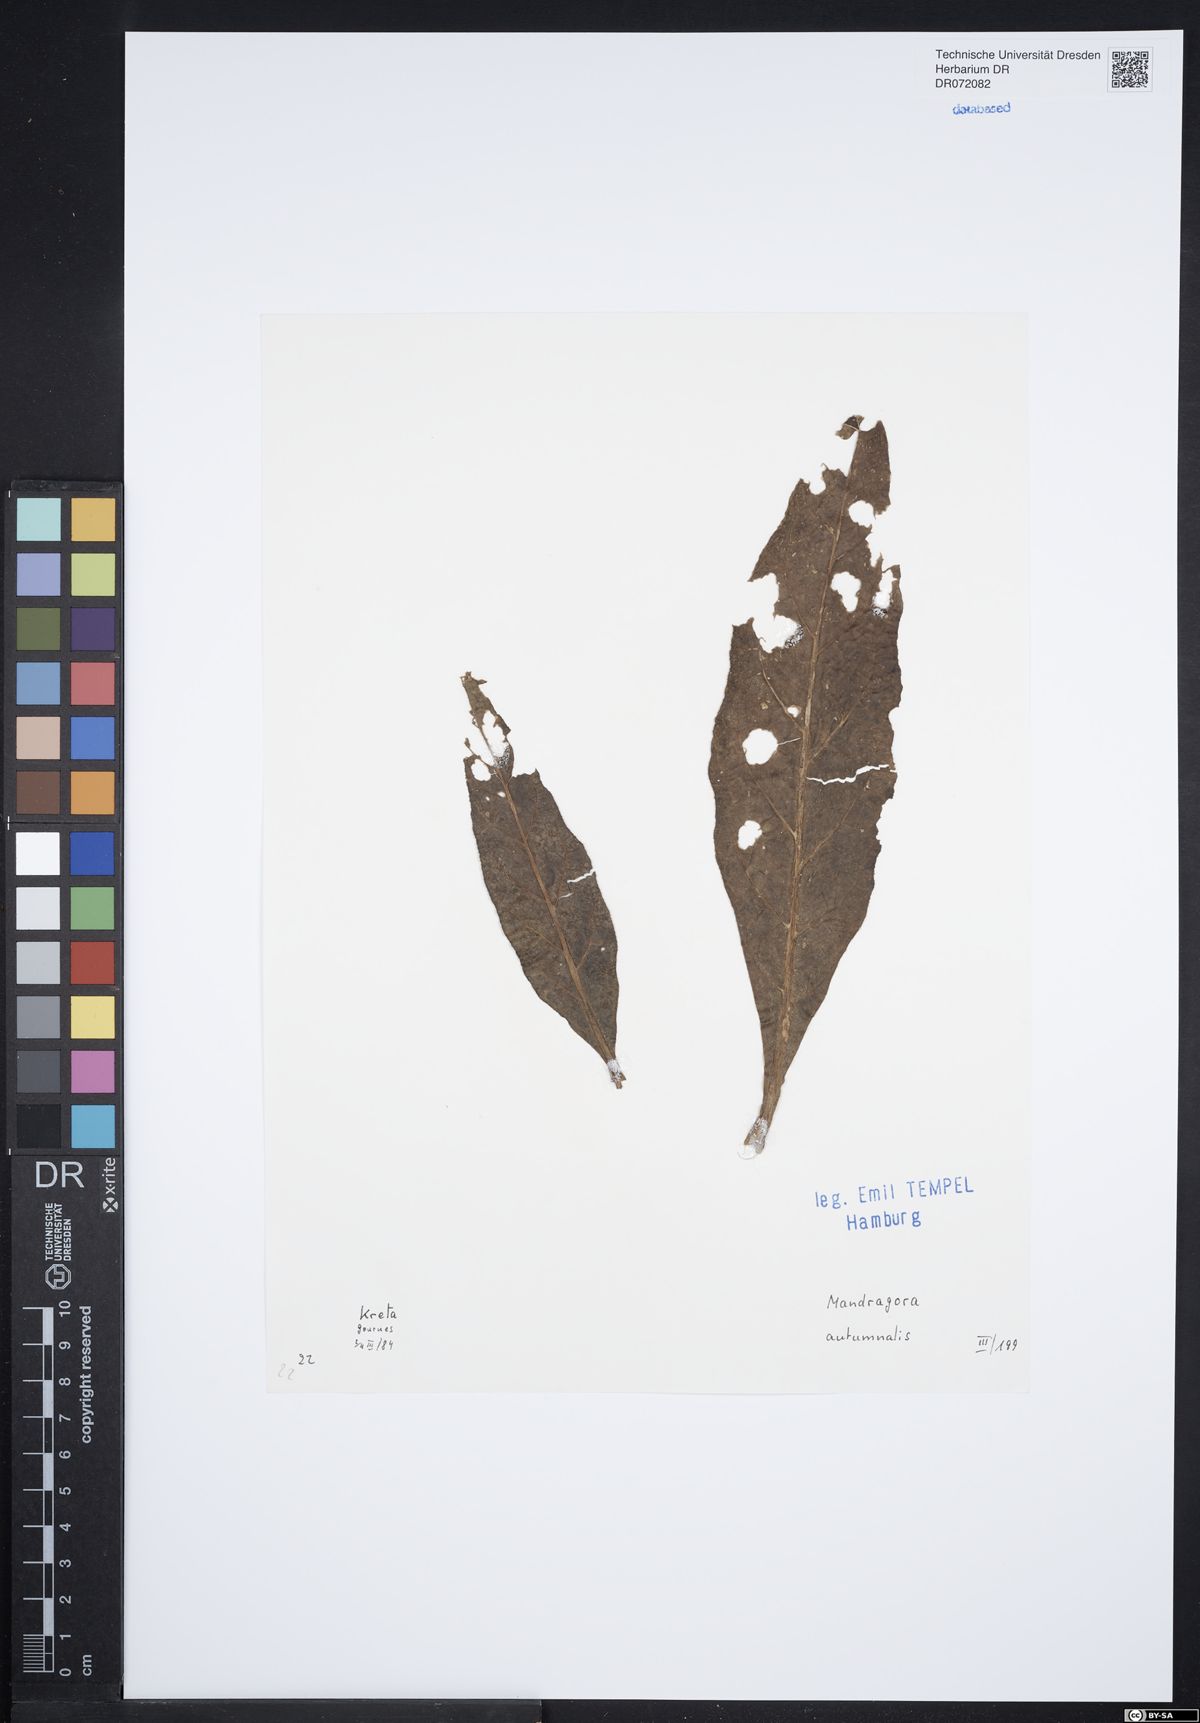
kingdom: Plantae
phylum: Tracheophyta
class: Magnoliopsida
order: Solanales
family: Solanaceae
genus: Mandragora
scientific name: Mandragora officinarum
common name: Mandrake
